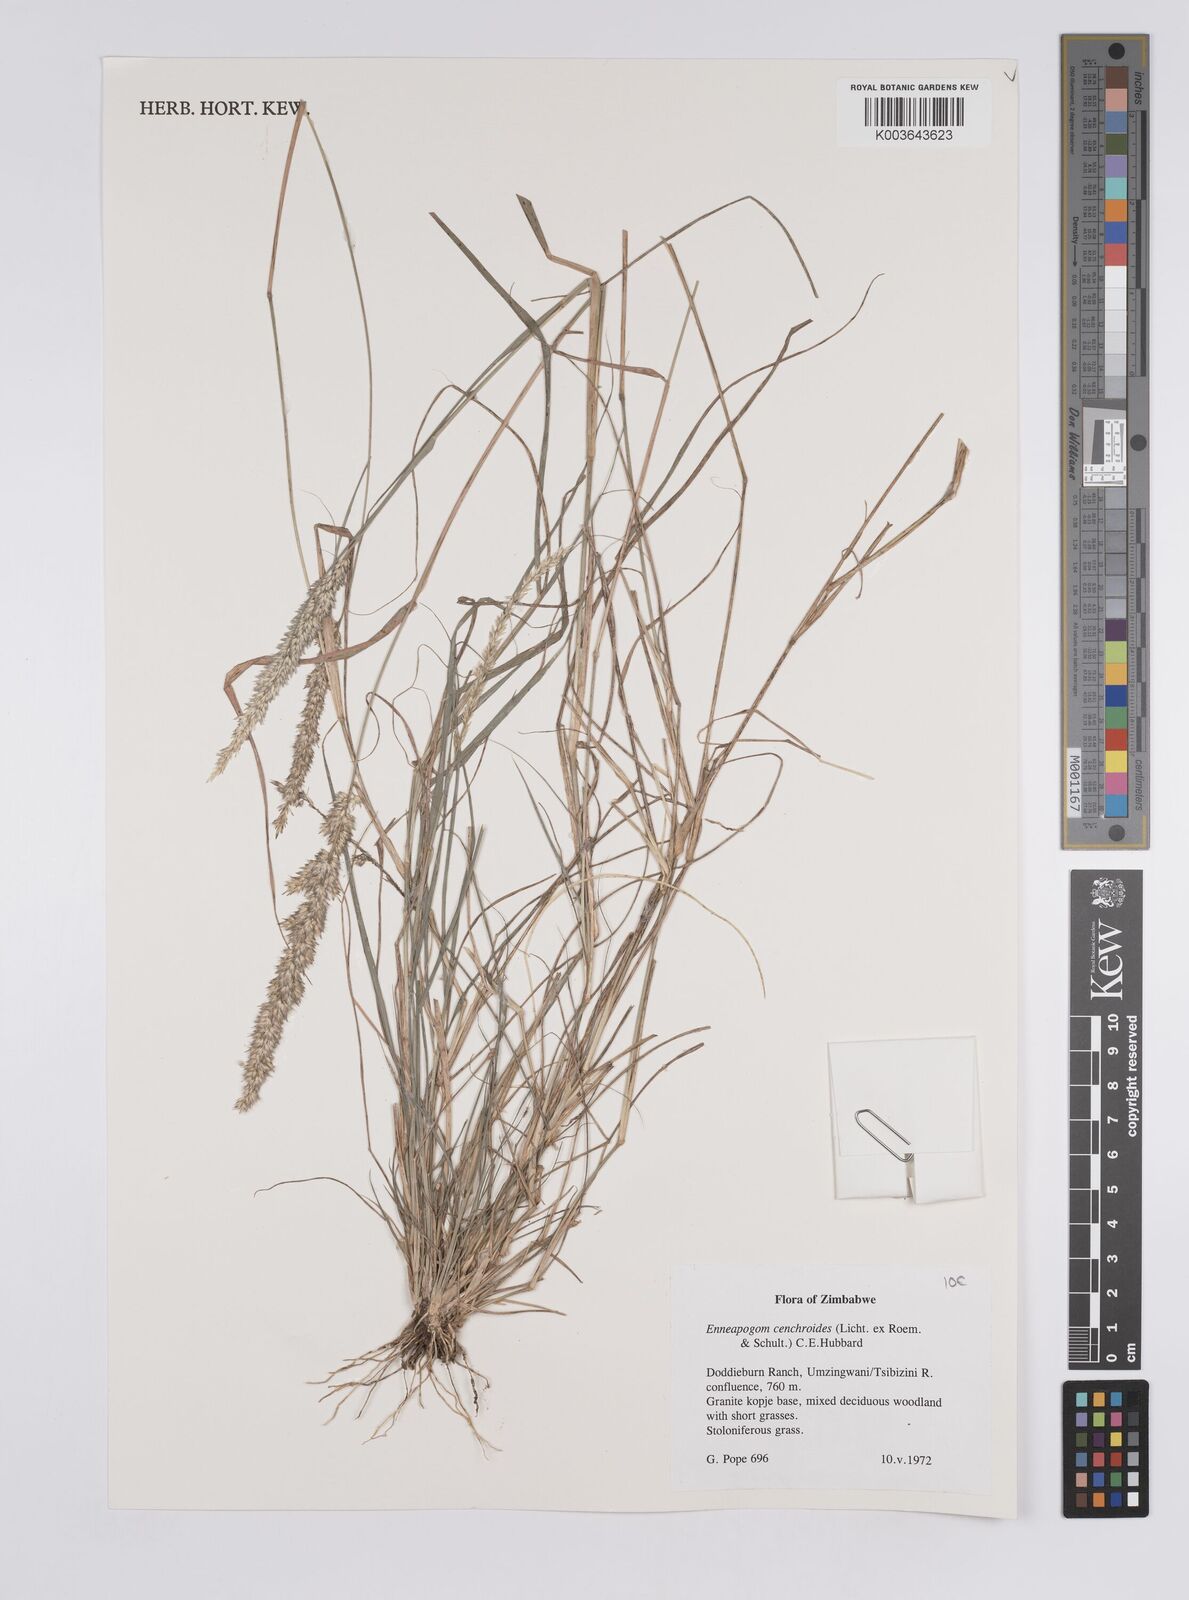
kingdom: Plantae
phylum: Tracheophyta
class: Liliopsida
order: Poales
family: Poaceae
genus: Enneapogon
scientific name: Enneapogon cenchroides
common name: Soft feather pappusgrass
